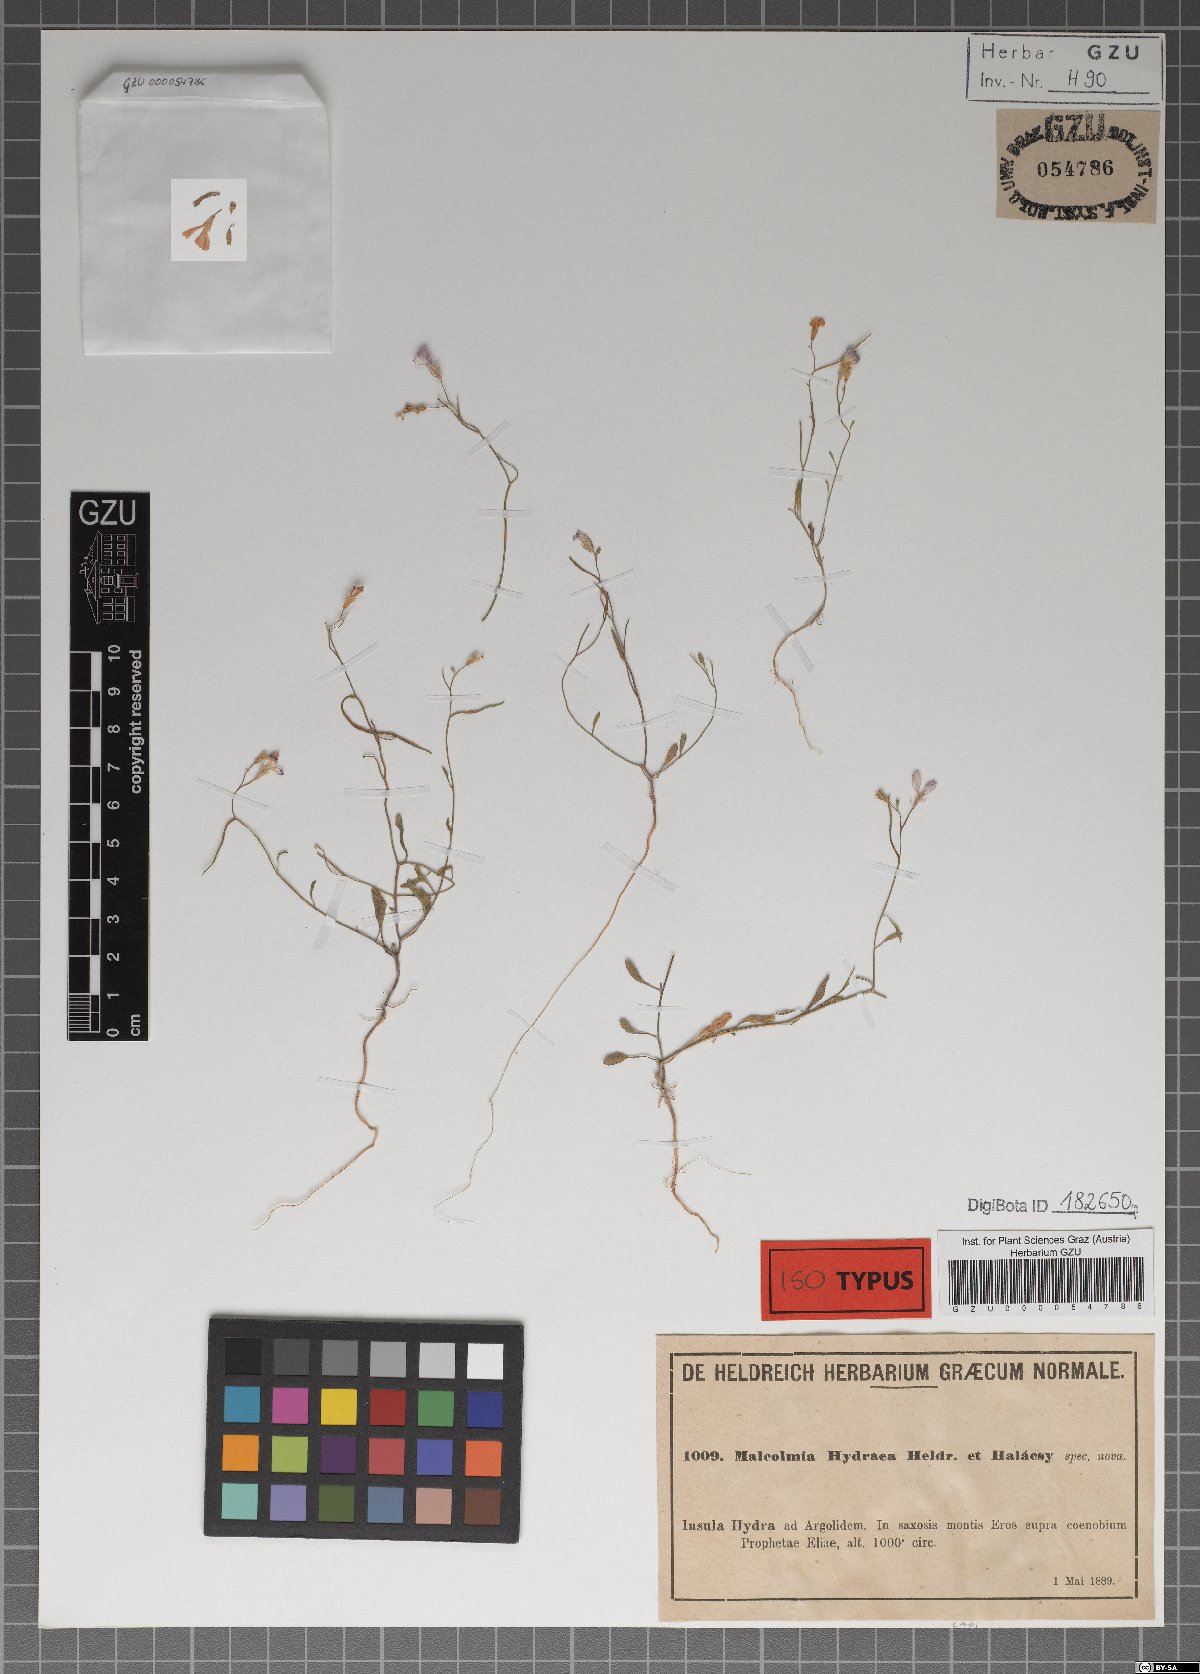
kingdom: Plantae
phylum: Tracheophyta
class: Magnoliopsida
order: Brassicales
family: Brassicaceae
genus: Malcolmia
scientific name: Malcolmia graeca
